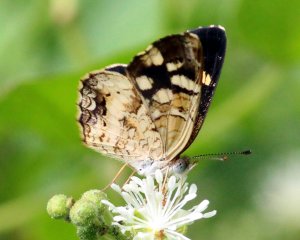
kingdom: Animalia
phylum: Arthropoda
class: Insecta
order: Lepidoptera
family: Nymphalidae
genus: Anthanassa
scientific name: Anthanassa tulcis
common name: Pale-banded Crescent
